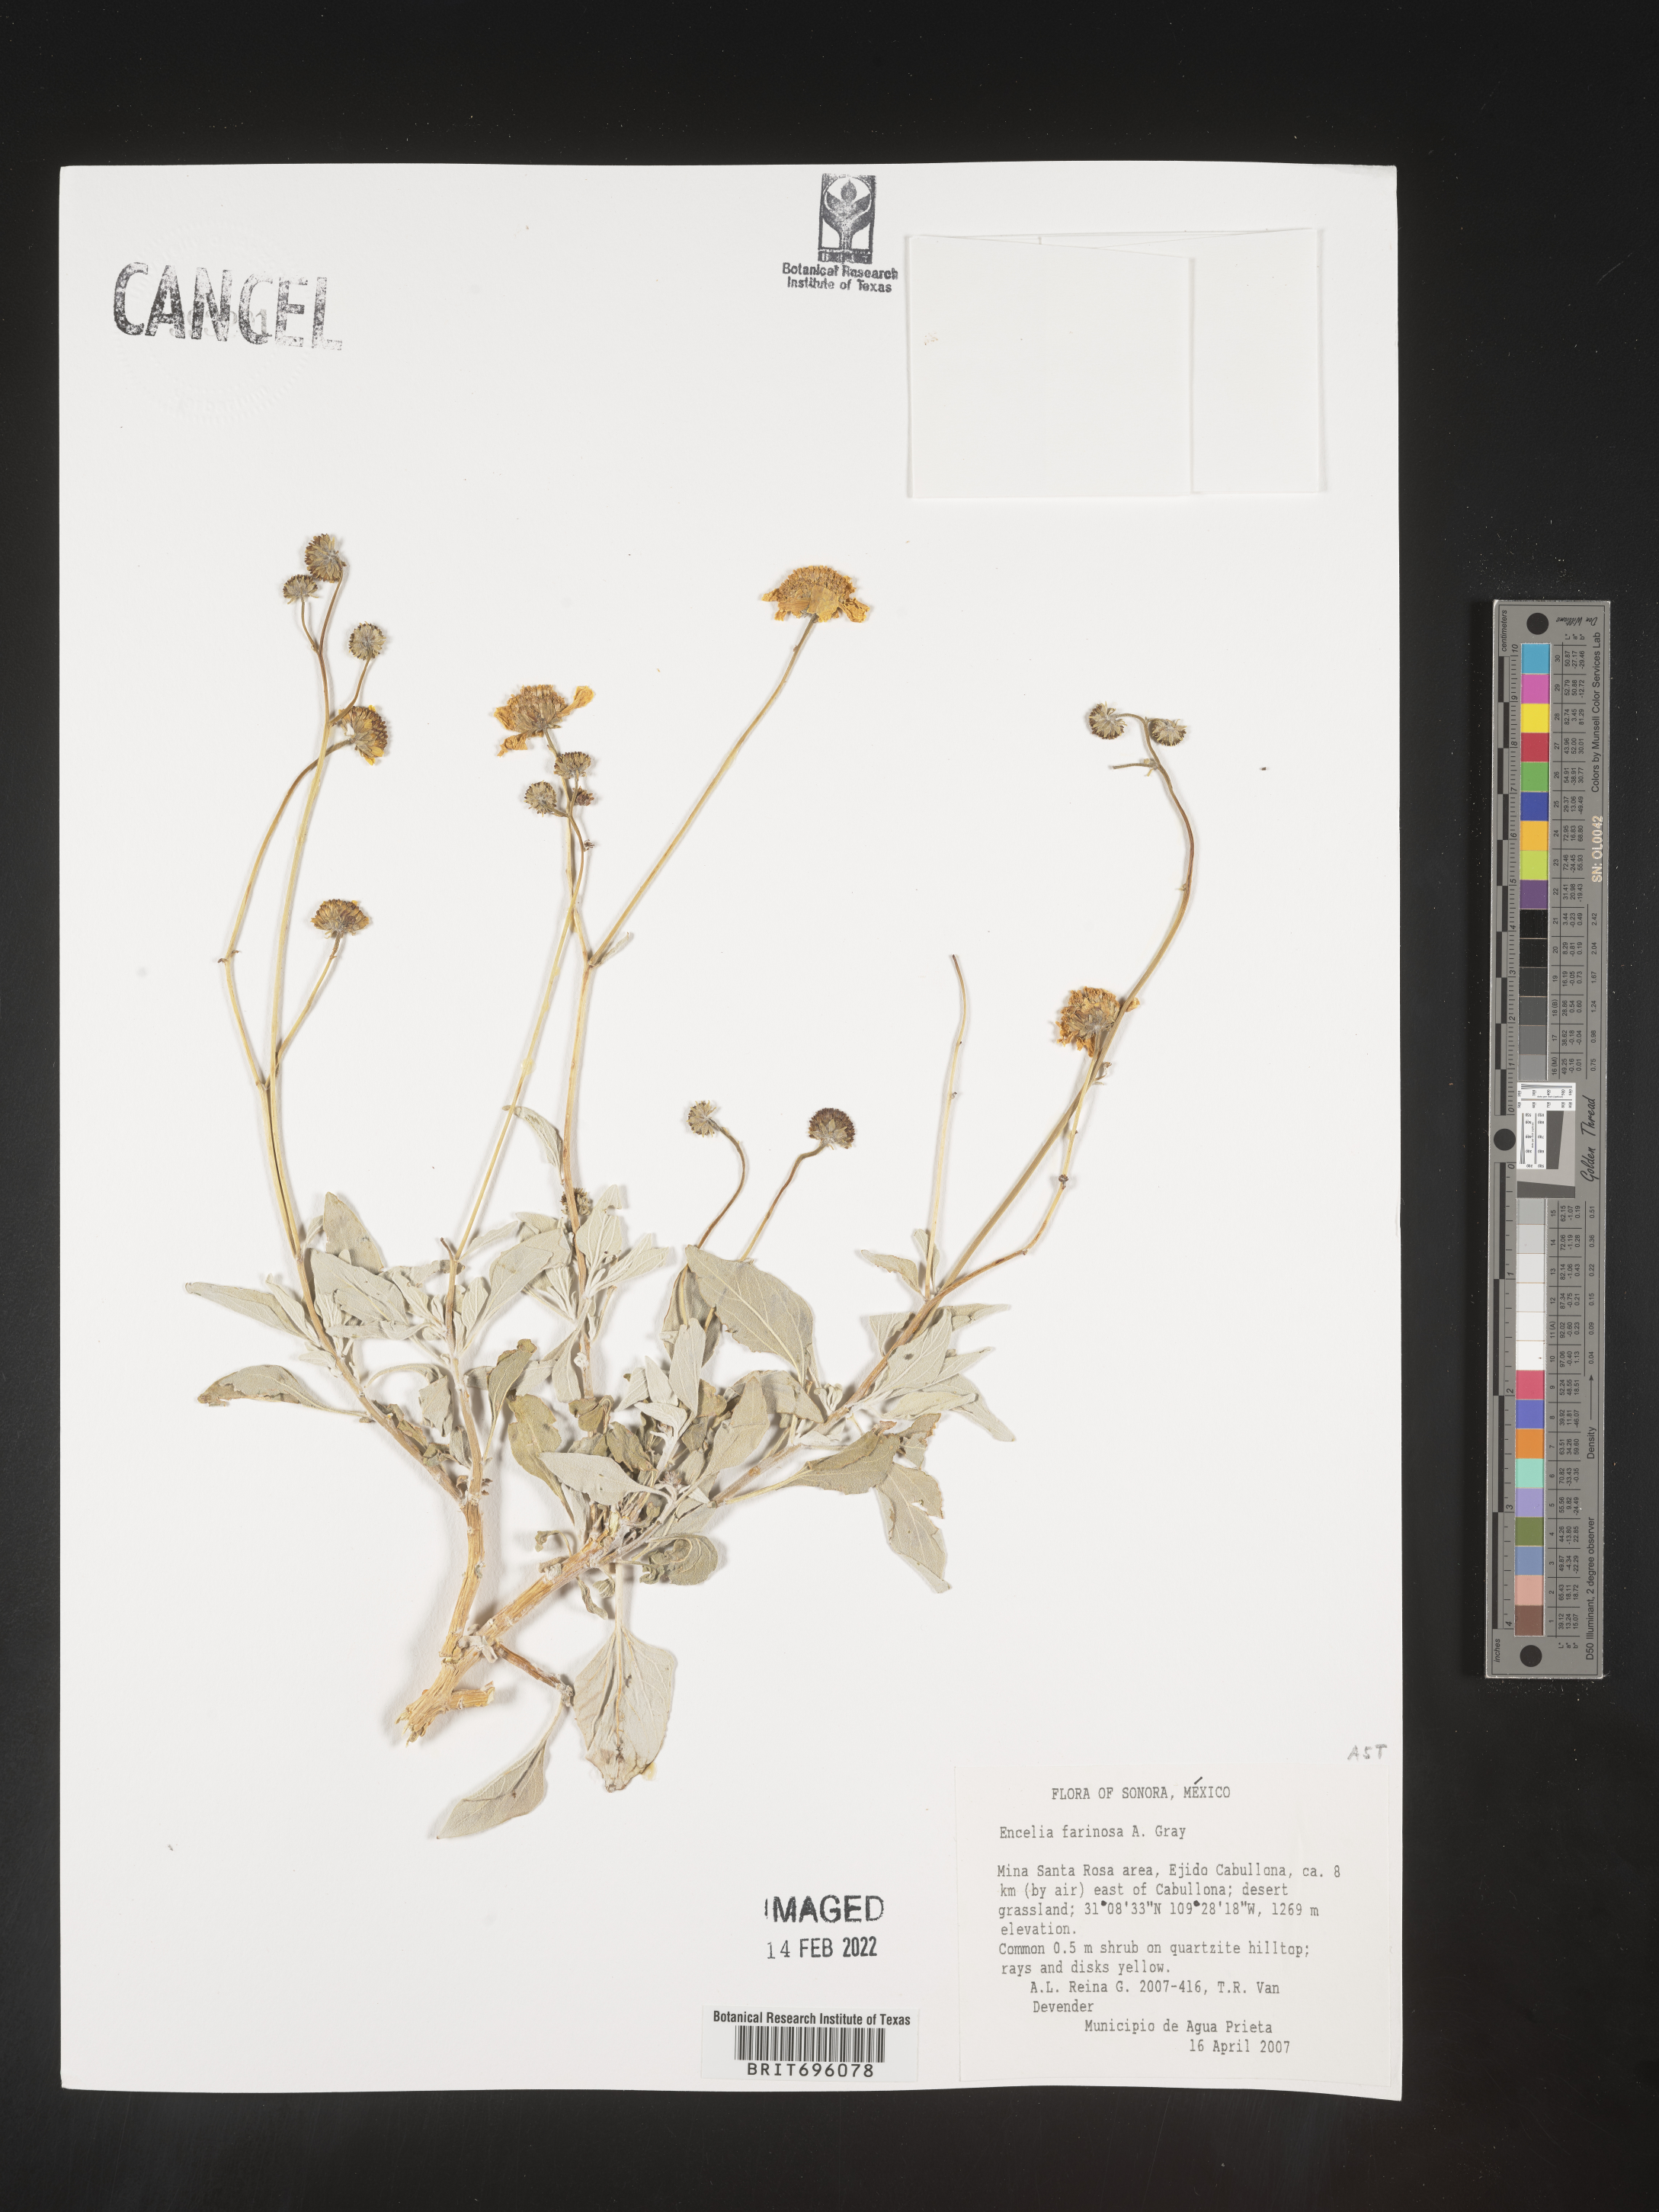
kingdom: Plantae
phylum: Tracheophyta
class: Magnoliopsida
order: Asterales
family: Asteraceae
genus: Encelia
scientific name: Encelia
